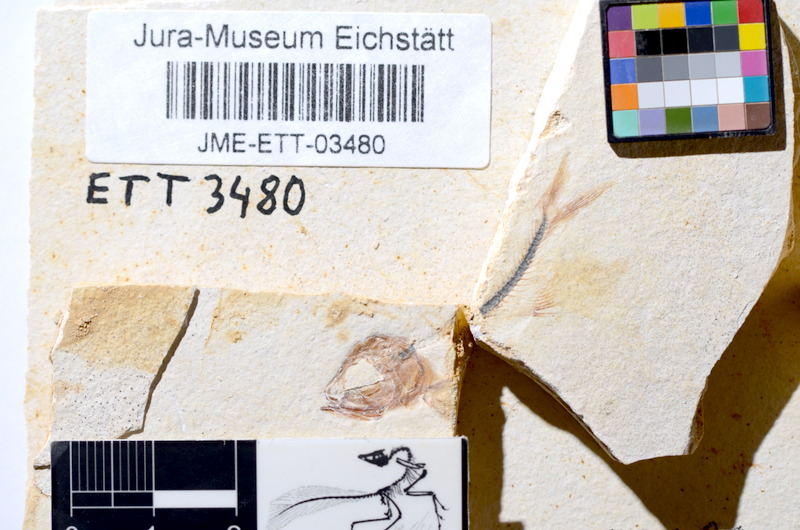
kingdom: Animalia
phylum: Chordata
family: Ascalaboidae
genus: Ebertichthys
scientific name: Ebertichthys ettlingensis
